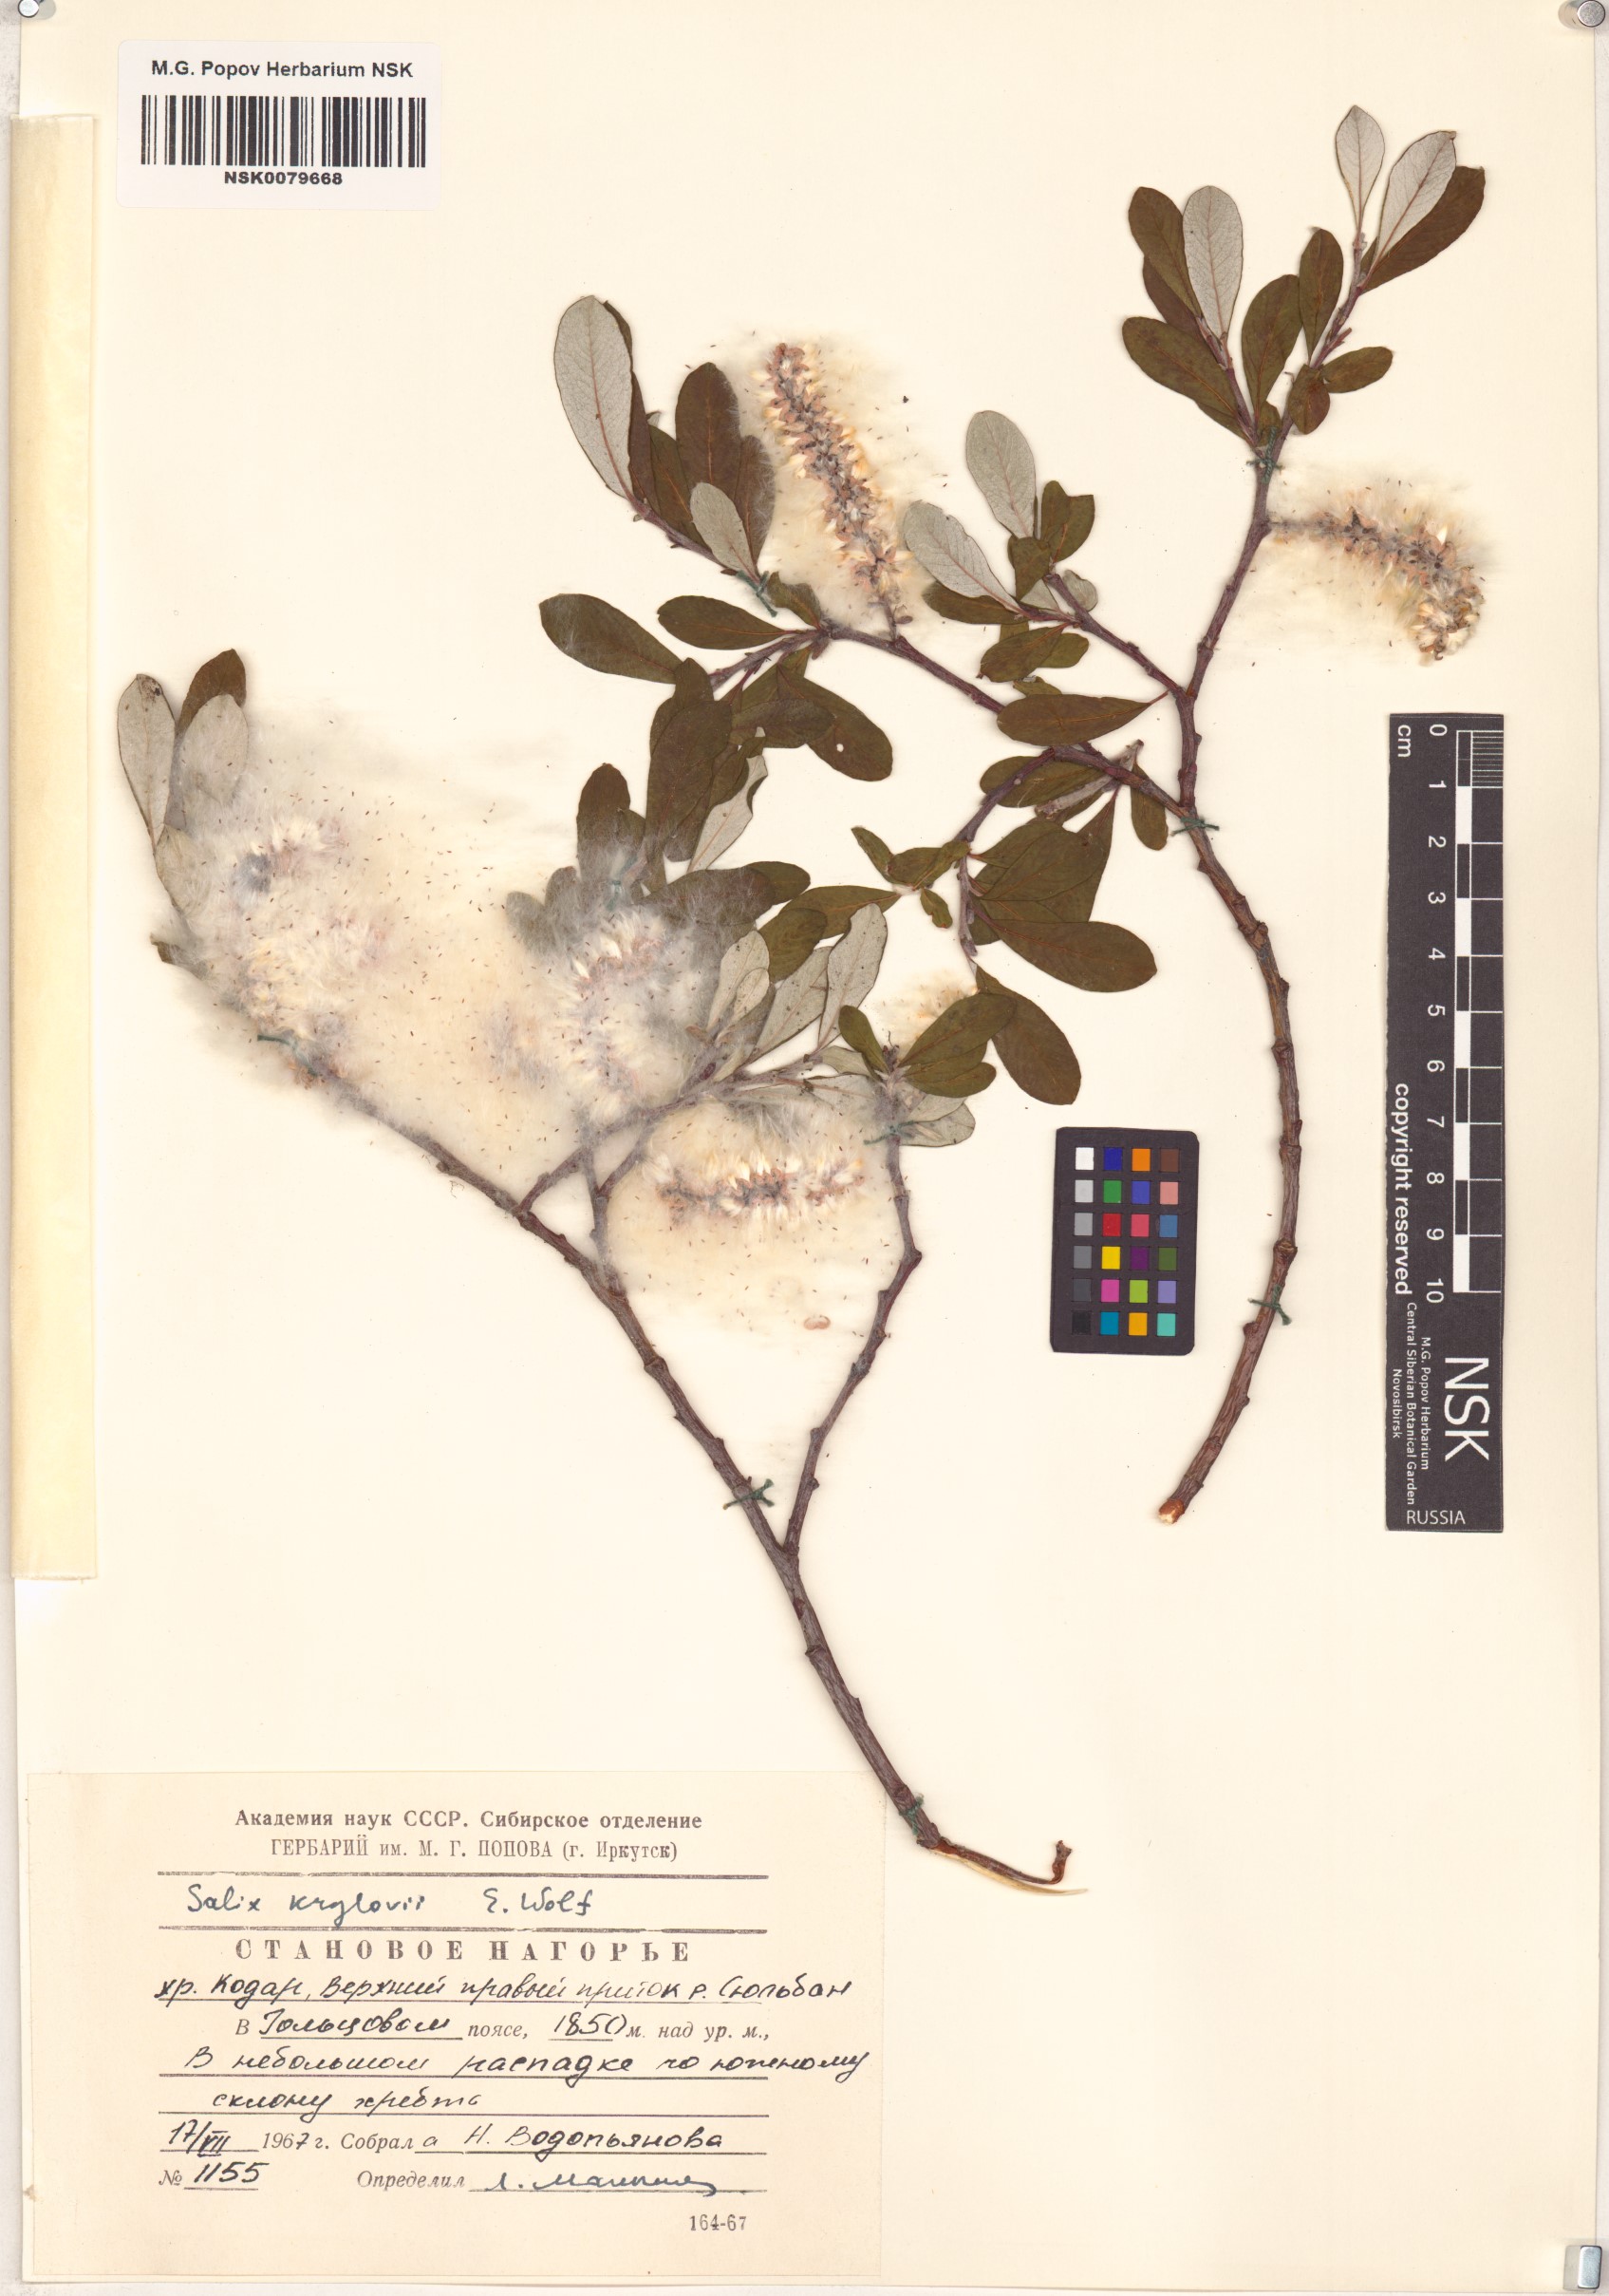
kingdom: Plantae
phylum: Tracheophyta
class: Magnoliopsida
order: Malpighiales
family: Salicaceae
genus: Salix
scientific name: Salix krylovii
